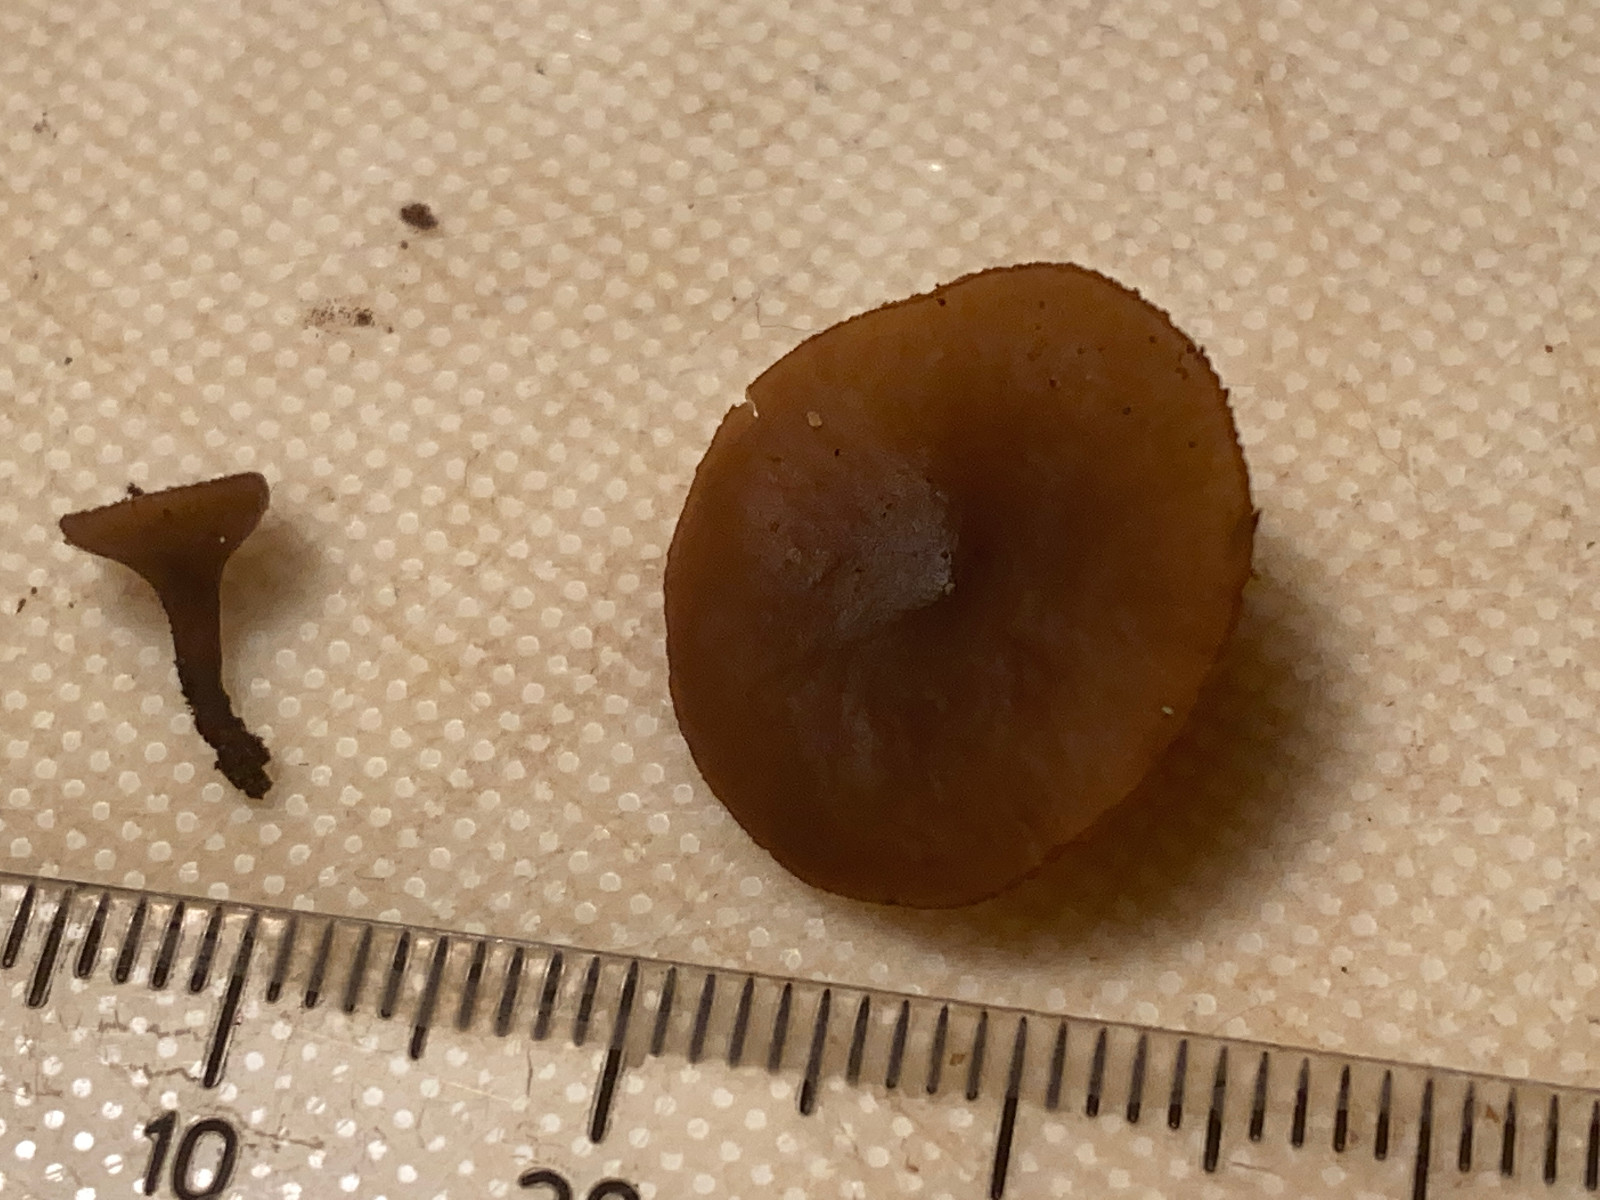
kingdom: Fungi
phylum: Ascomycota
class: Leotiomycetes
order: Helotiales
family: Rutstroemiaceae
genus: Rutstroemia
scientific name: Rutstroemia firma
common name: gren-brunskive
